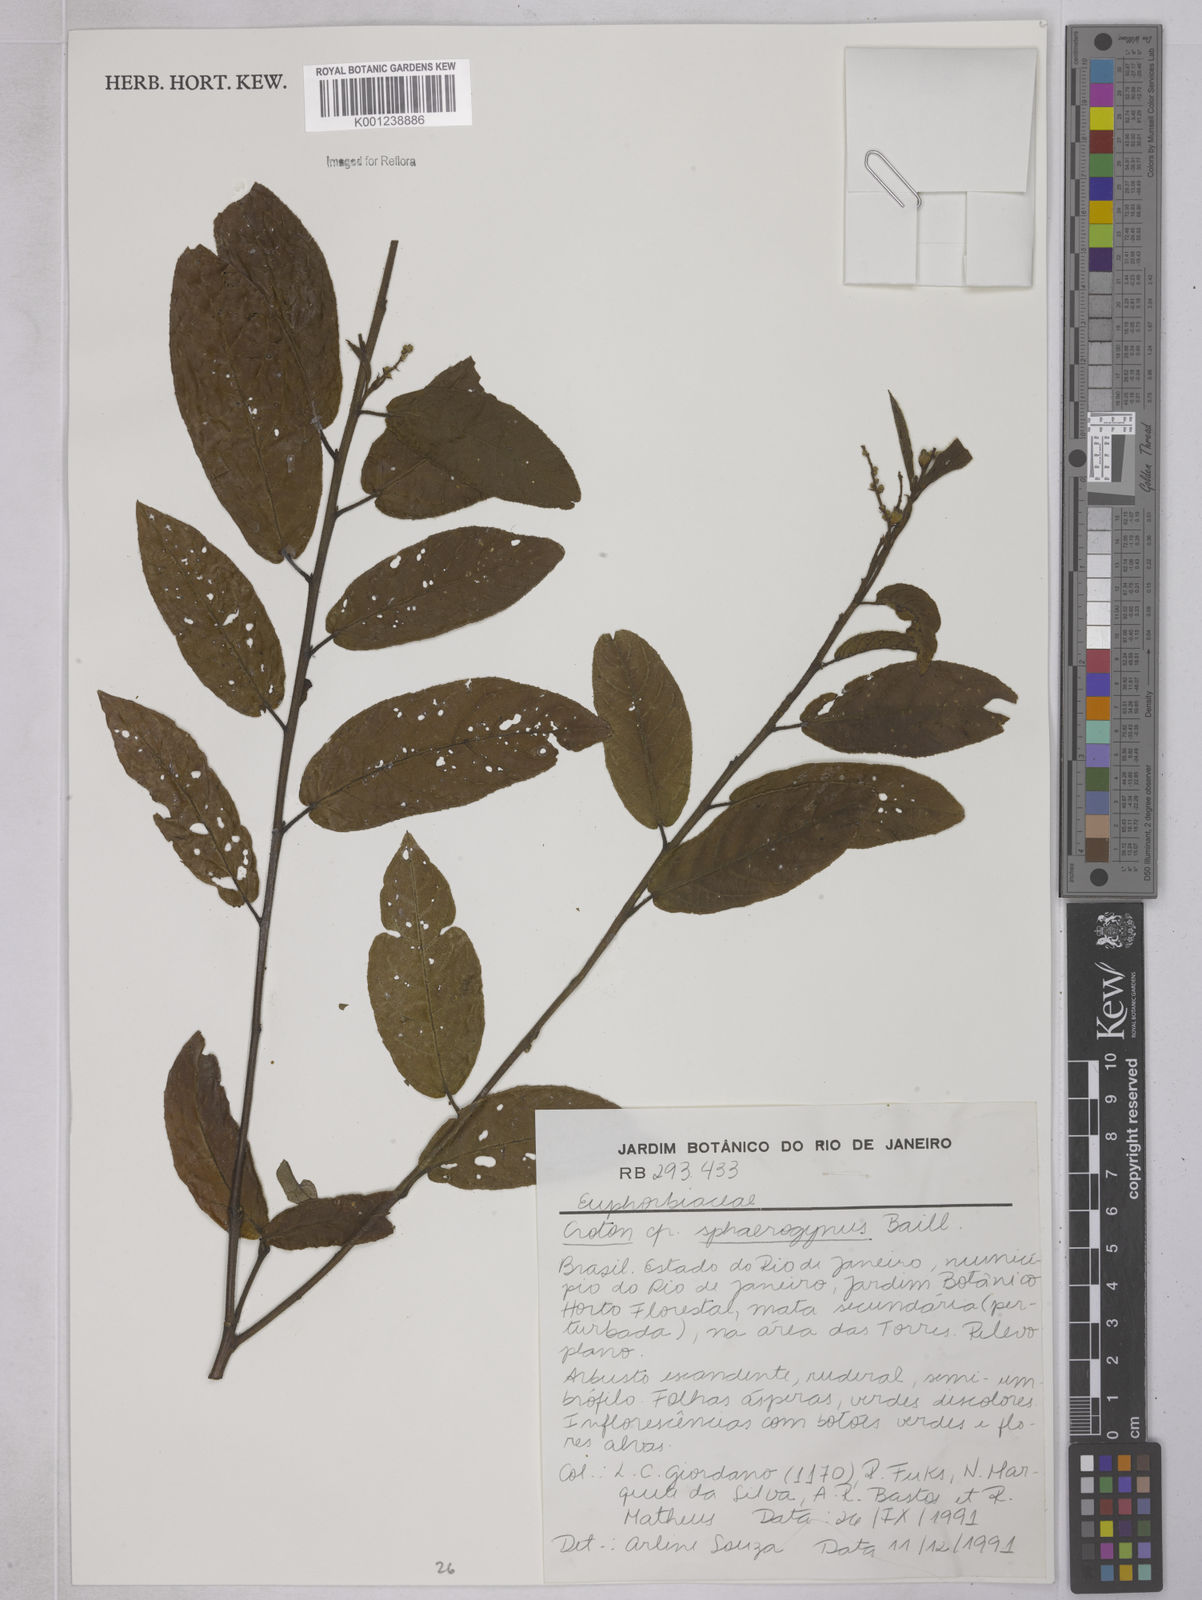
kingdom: Plantae
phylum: Tracheophyta
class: Magnoliopsida
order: Malpighiales
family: Euphorbiaceae
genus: Croton
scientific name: Croton sphaerogynus
